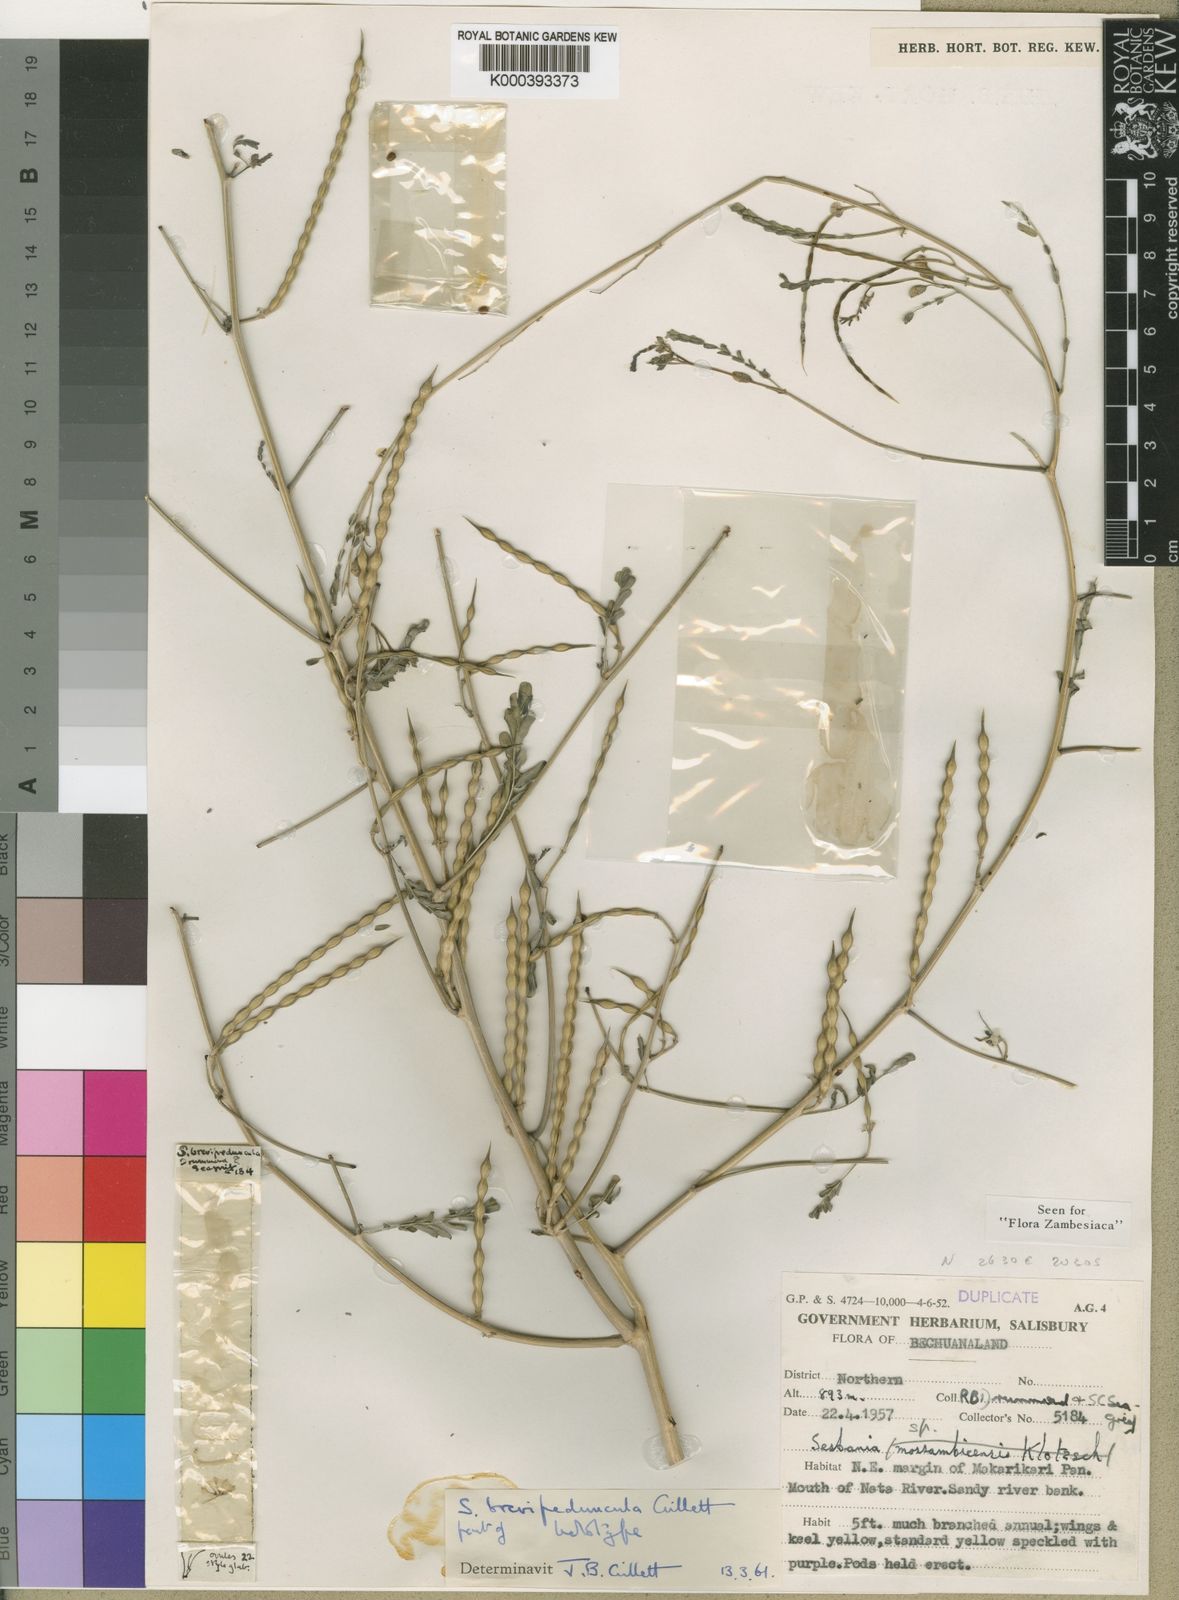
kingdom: Plantae
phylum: Tracheophyta
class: Magnoliopsida
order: Fabales
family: Fabaceae
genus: Sesbania
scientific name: Sesbania brevipeduncula
